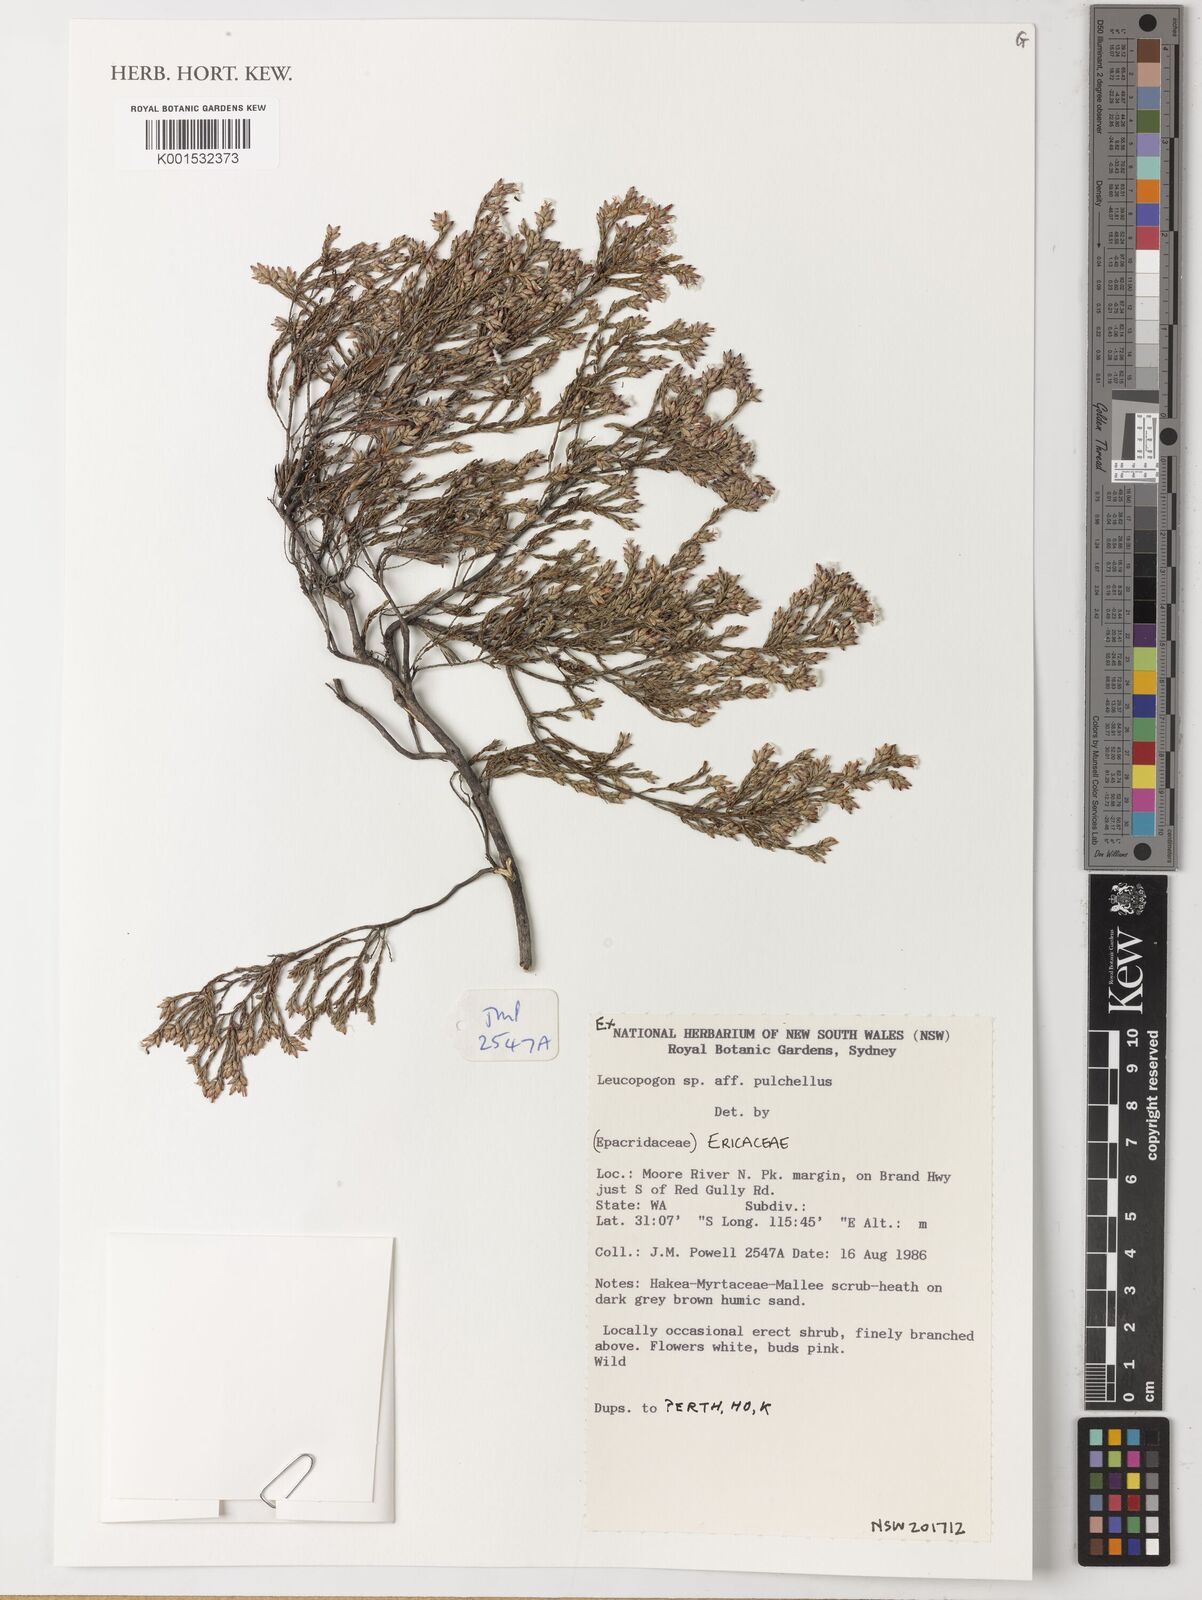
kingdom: Plantae
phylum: Tracheophyta
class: Magnoliopsida
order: Ericales
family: Ericaceae
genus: Leucopogon
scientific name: Leucopogon pulchellus
